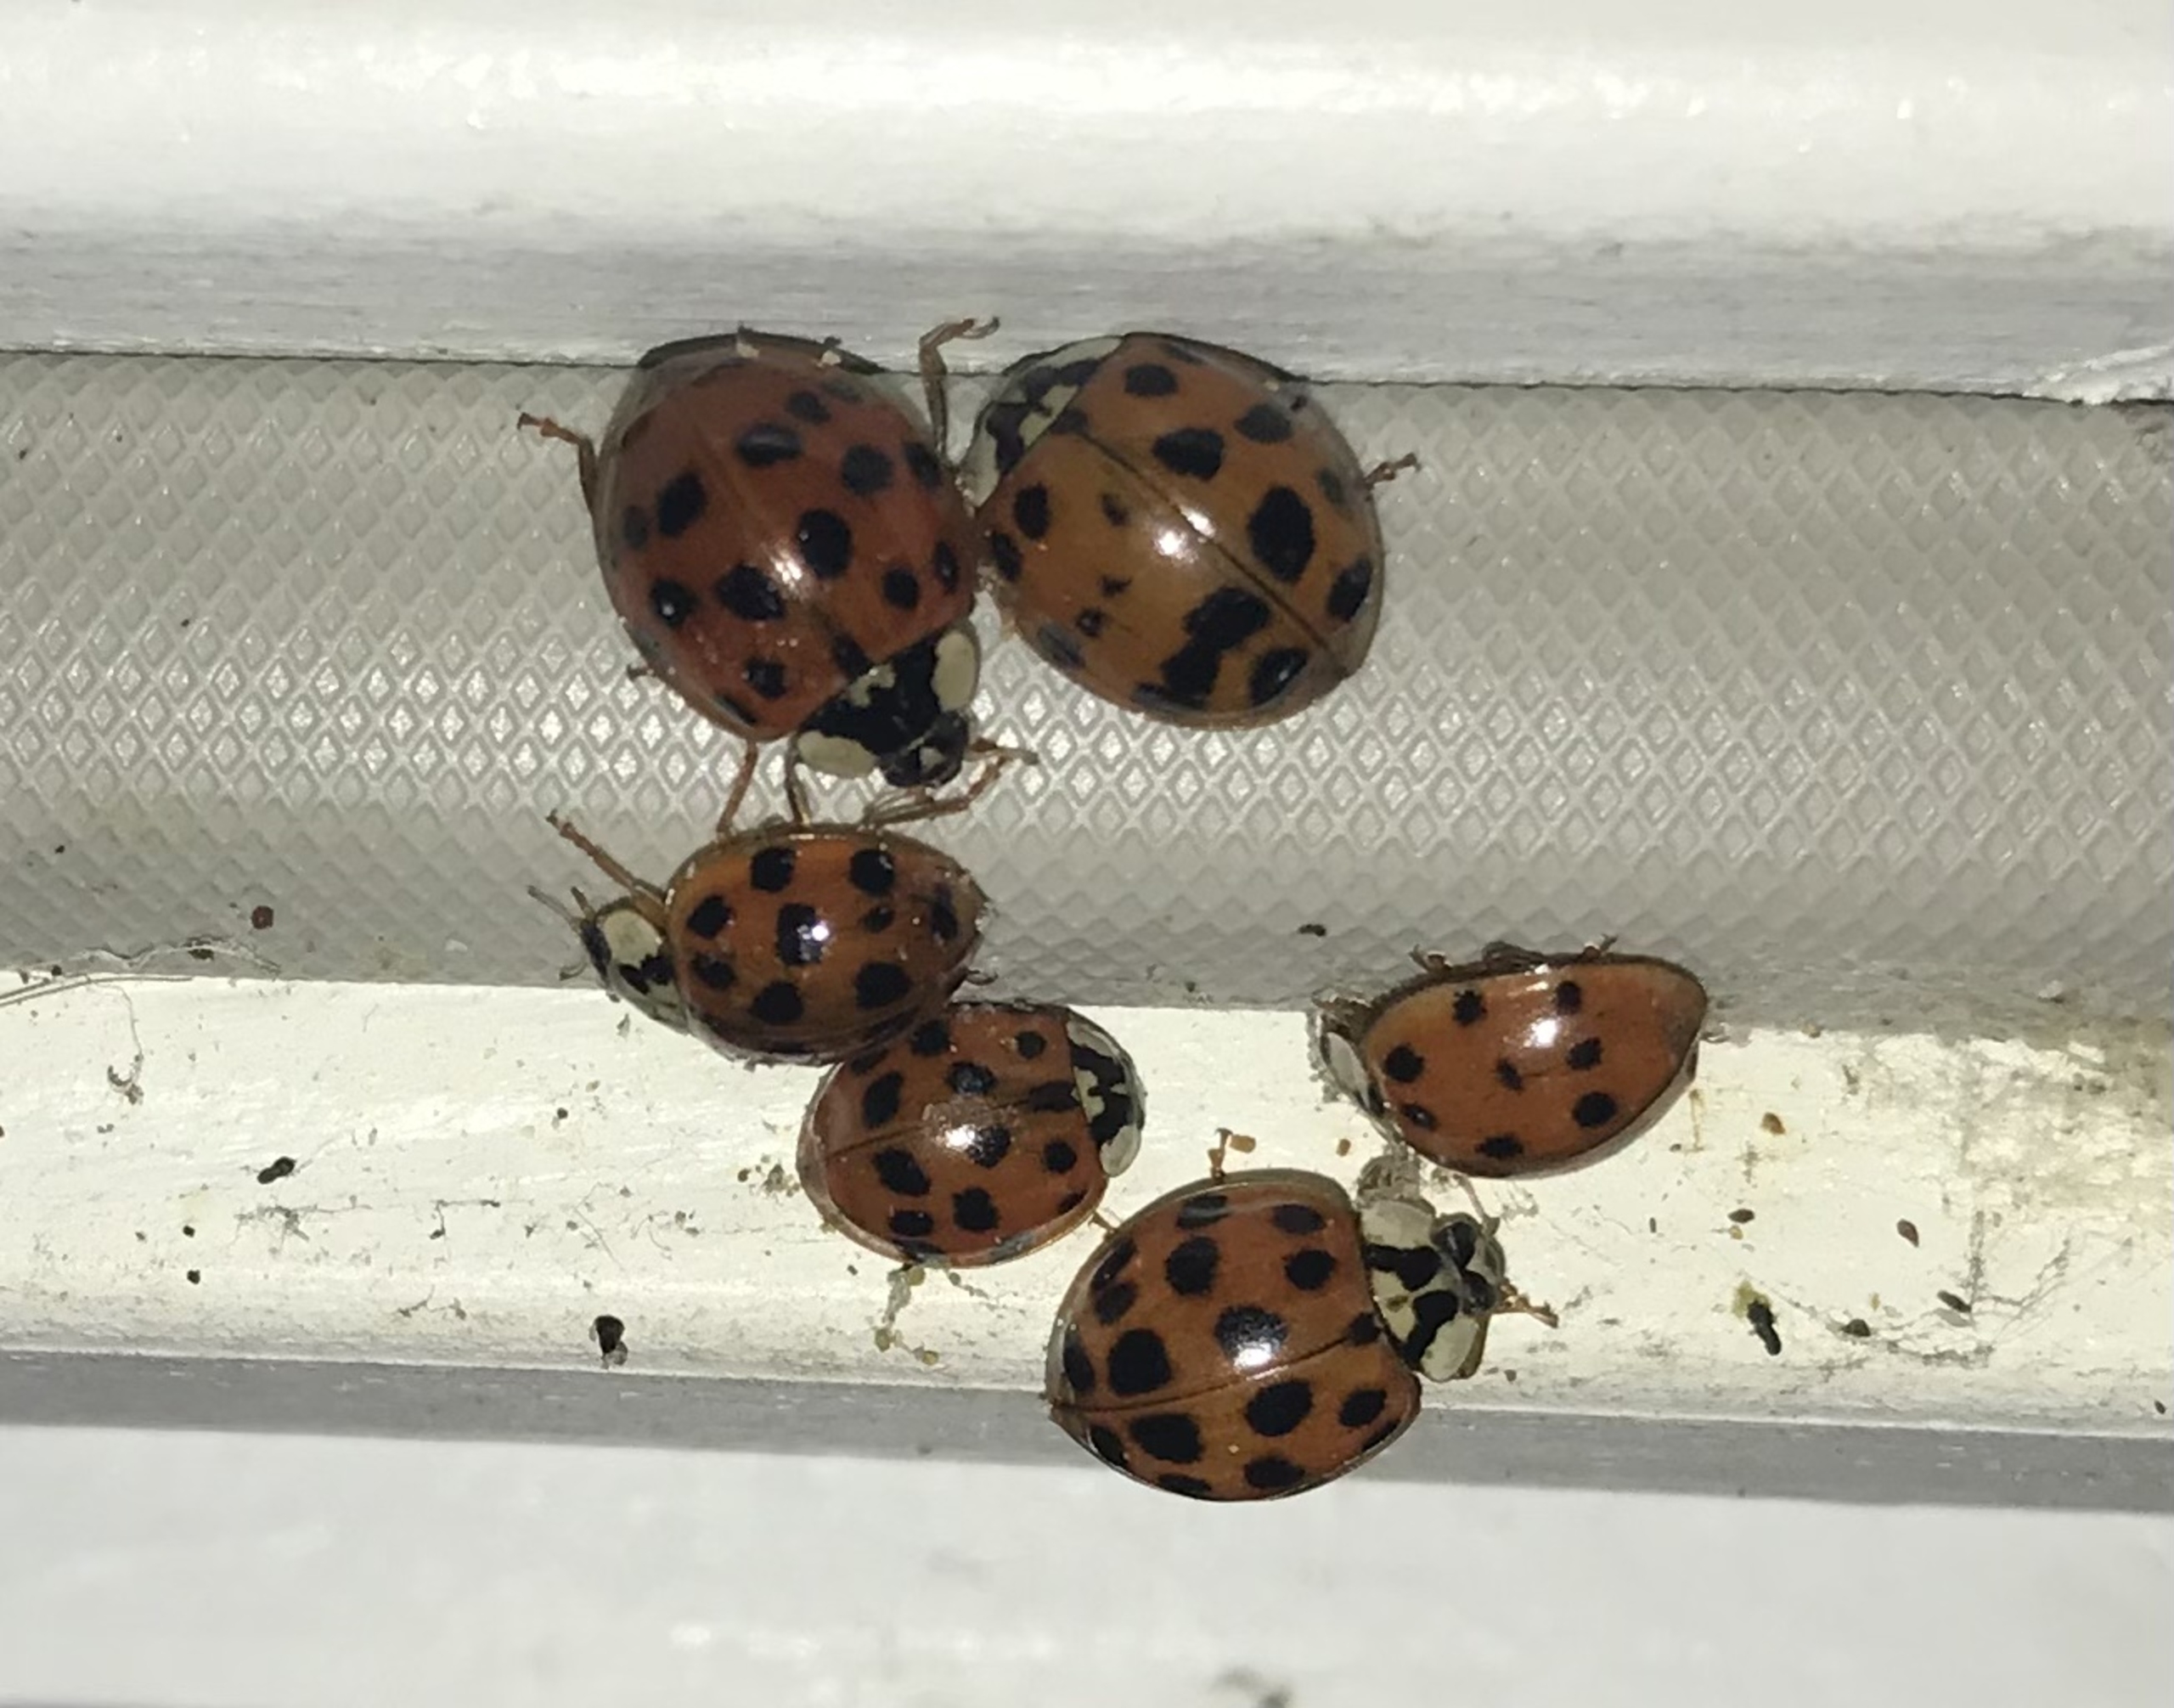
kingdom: Animalia
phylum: Arthropoda
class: Insecta
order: Coleoptera
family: Coccinellidae
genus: Harmonia
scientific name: Harmonia axyridis
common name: Harlekinmariehøne
